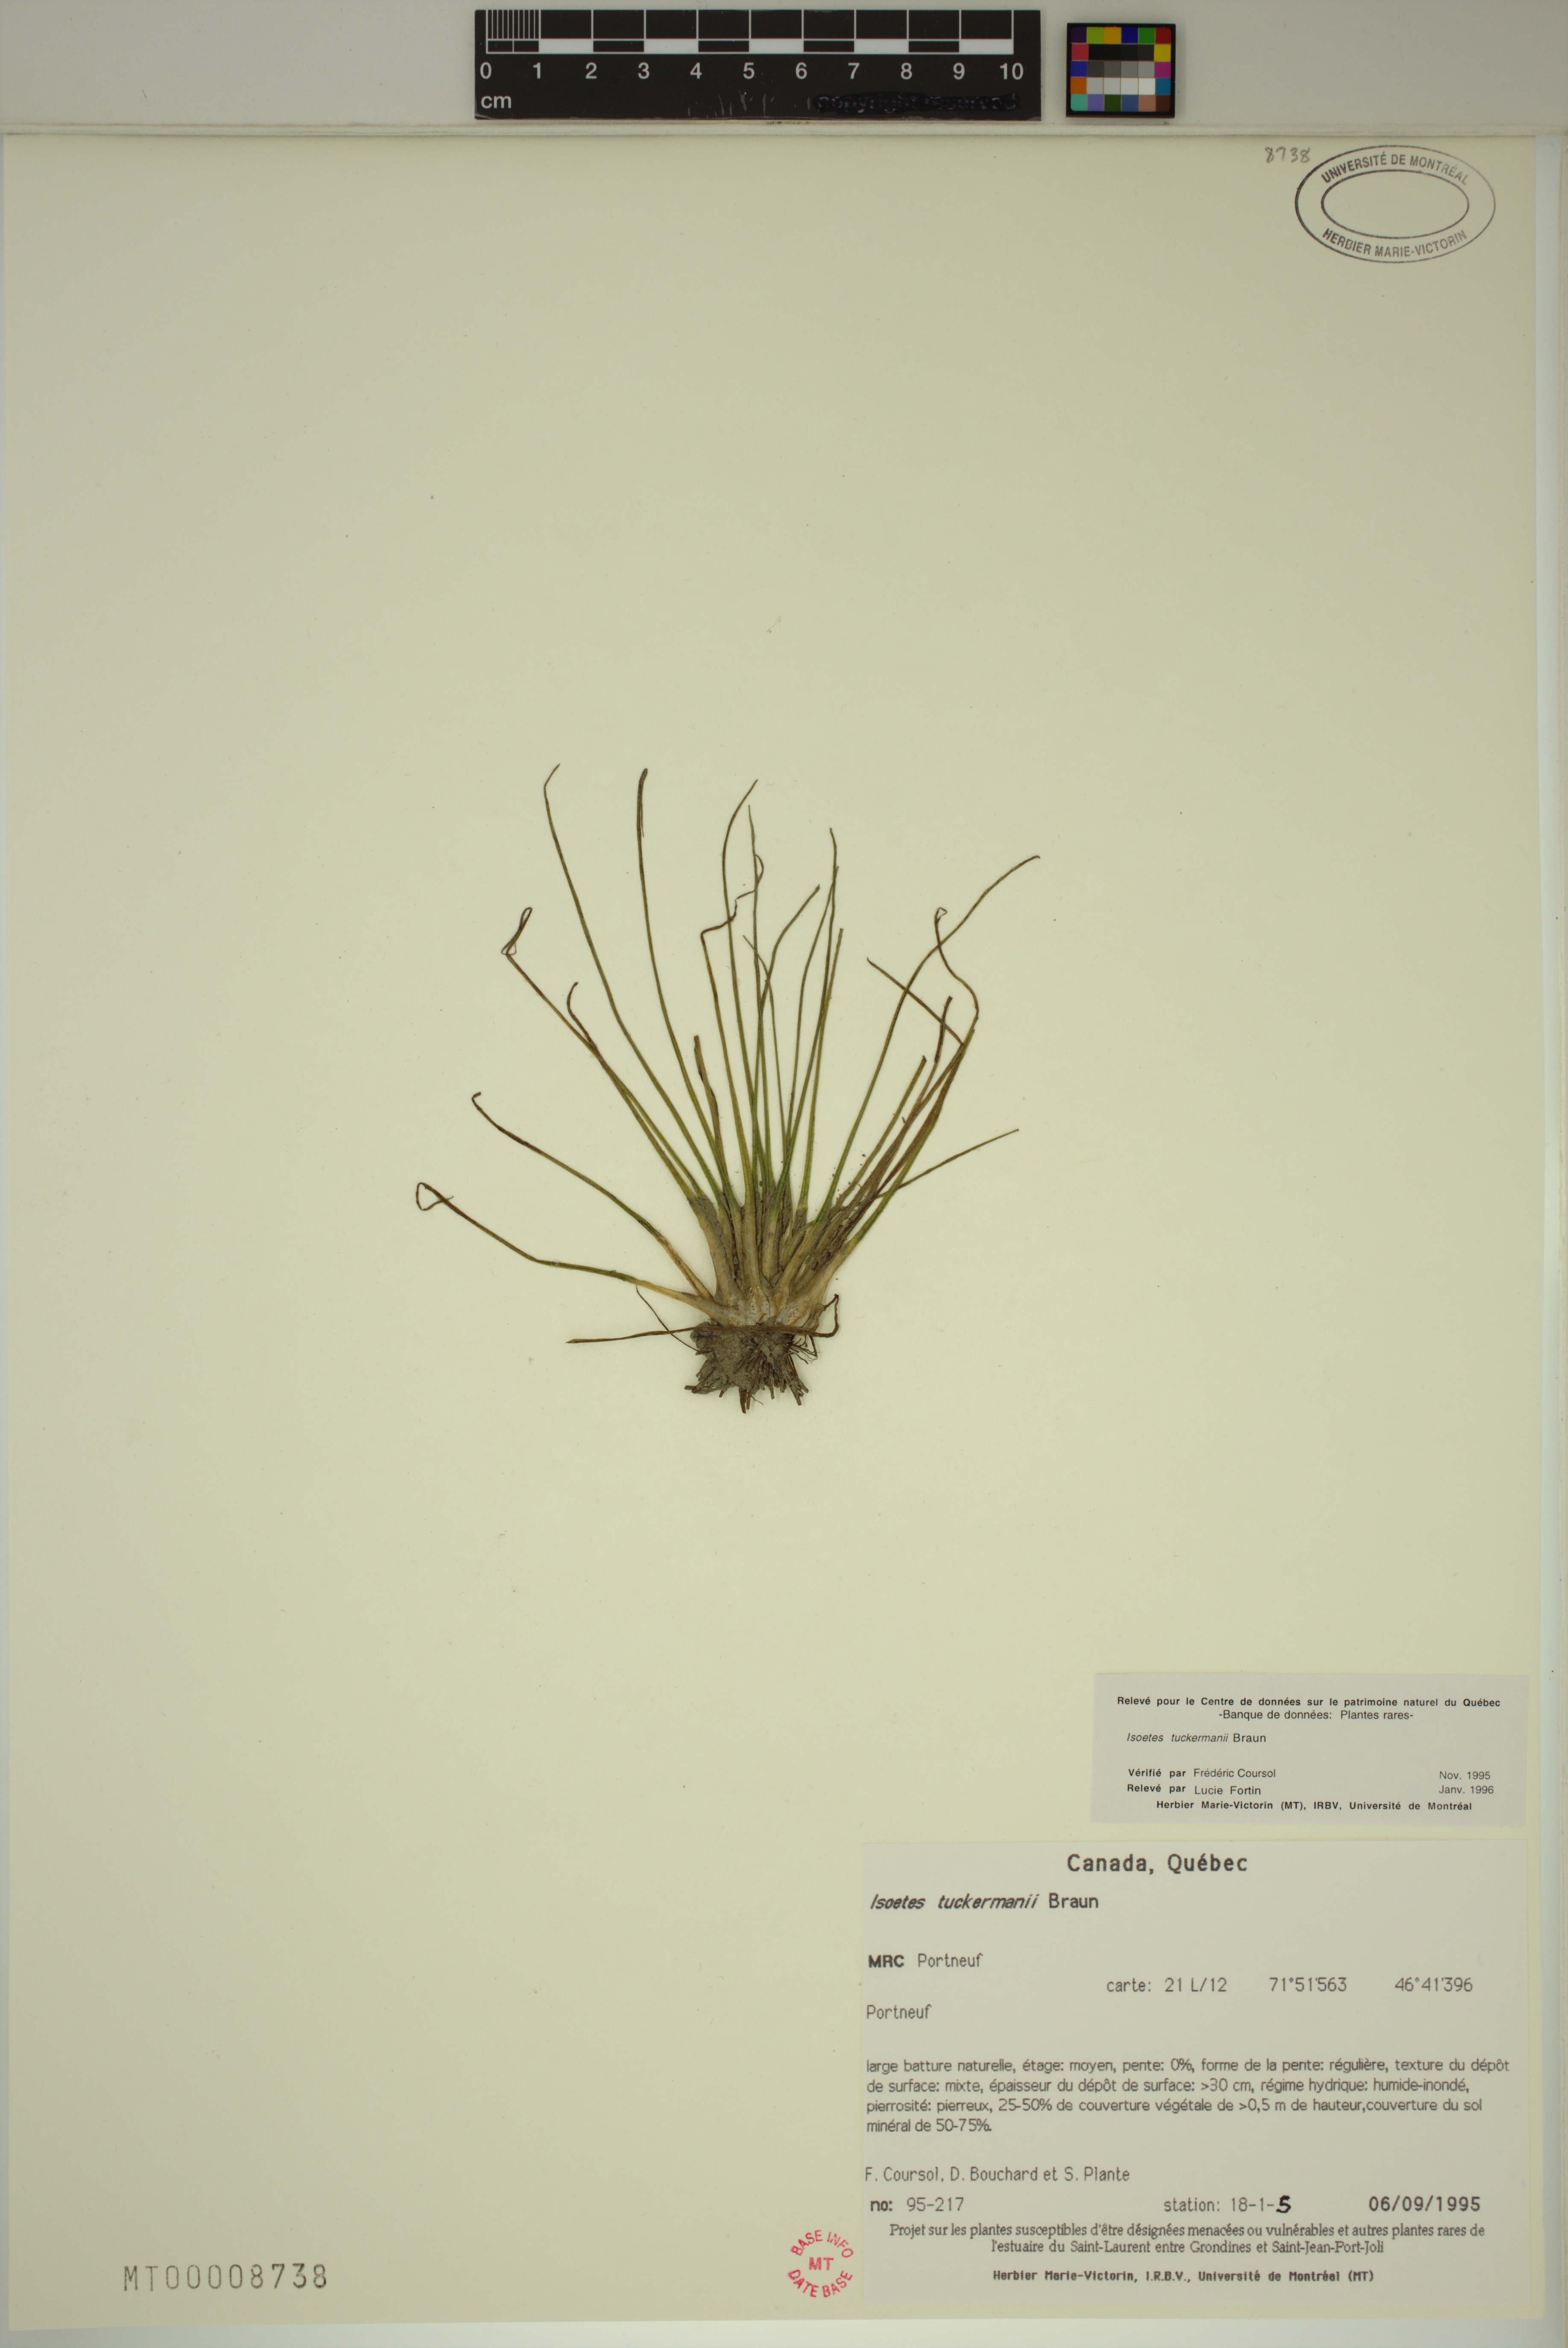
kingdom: Plantae
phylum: Tracheophyta
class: Lycopodiopsida
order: Isoetales
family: Isoetaceae
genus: Isoetes
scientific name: Isoetes laurentiana
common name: St. lawrence quillwort
